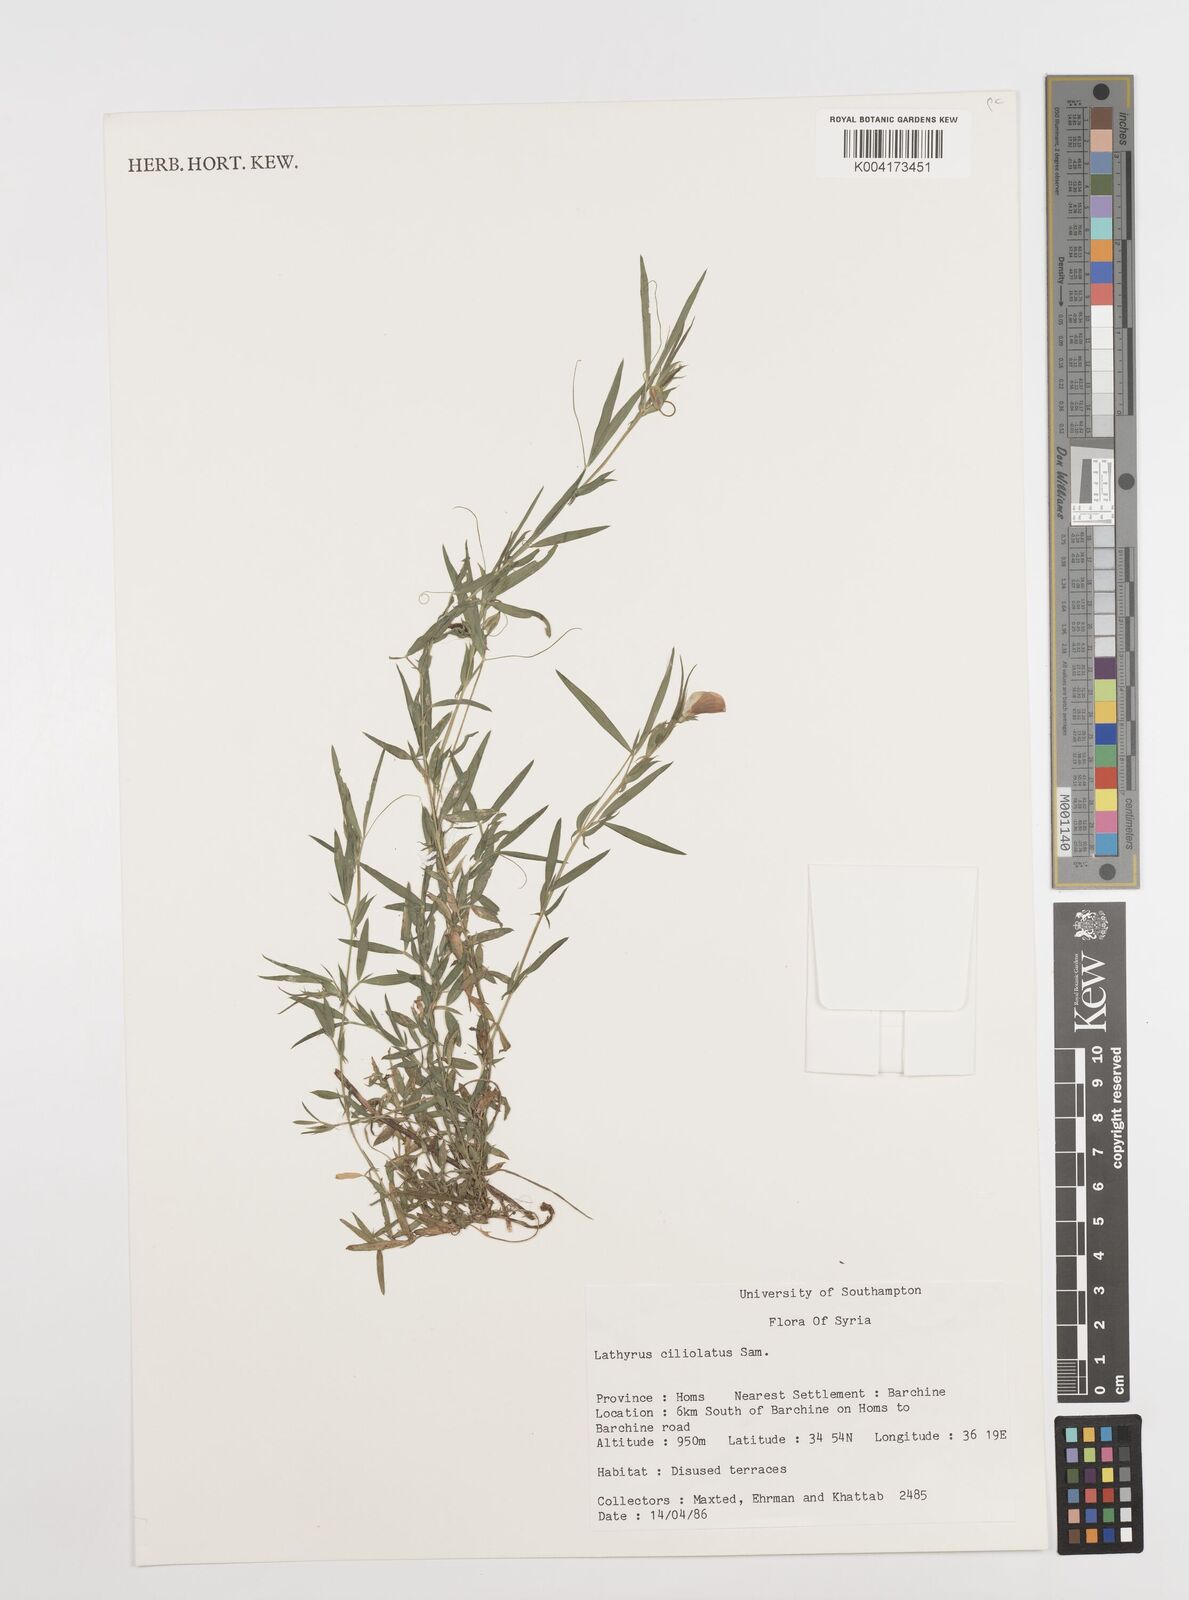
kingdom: Plantae
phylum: Tracheophyta
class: Magnoliopsida
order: Fabales
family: Fabaceae
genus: Lathyrus
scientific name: Lathyrus ciliolatus
